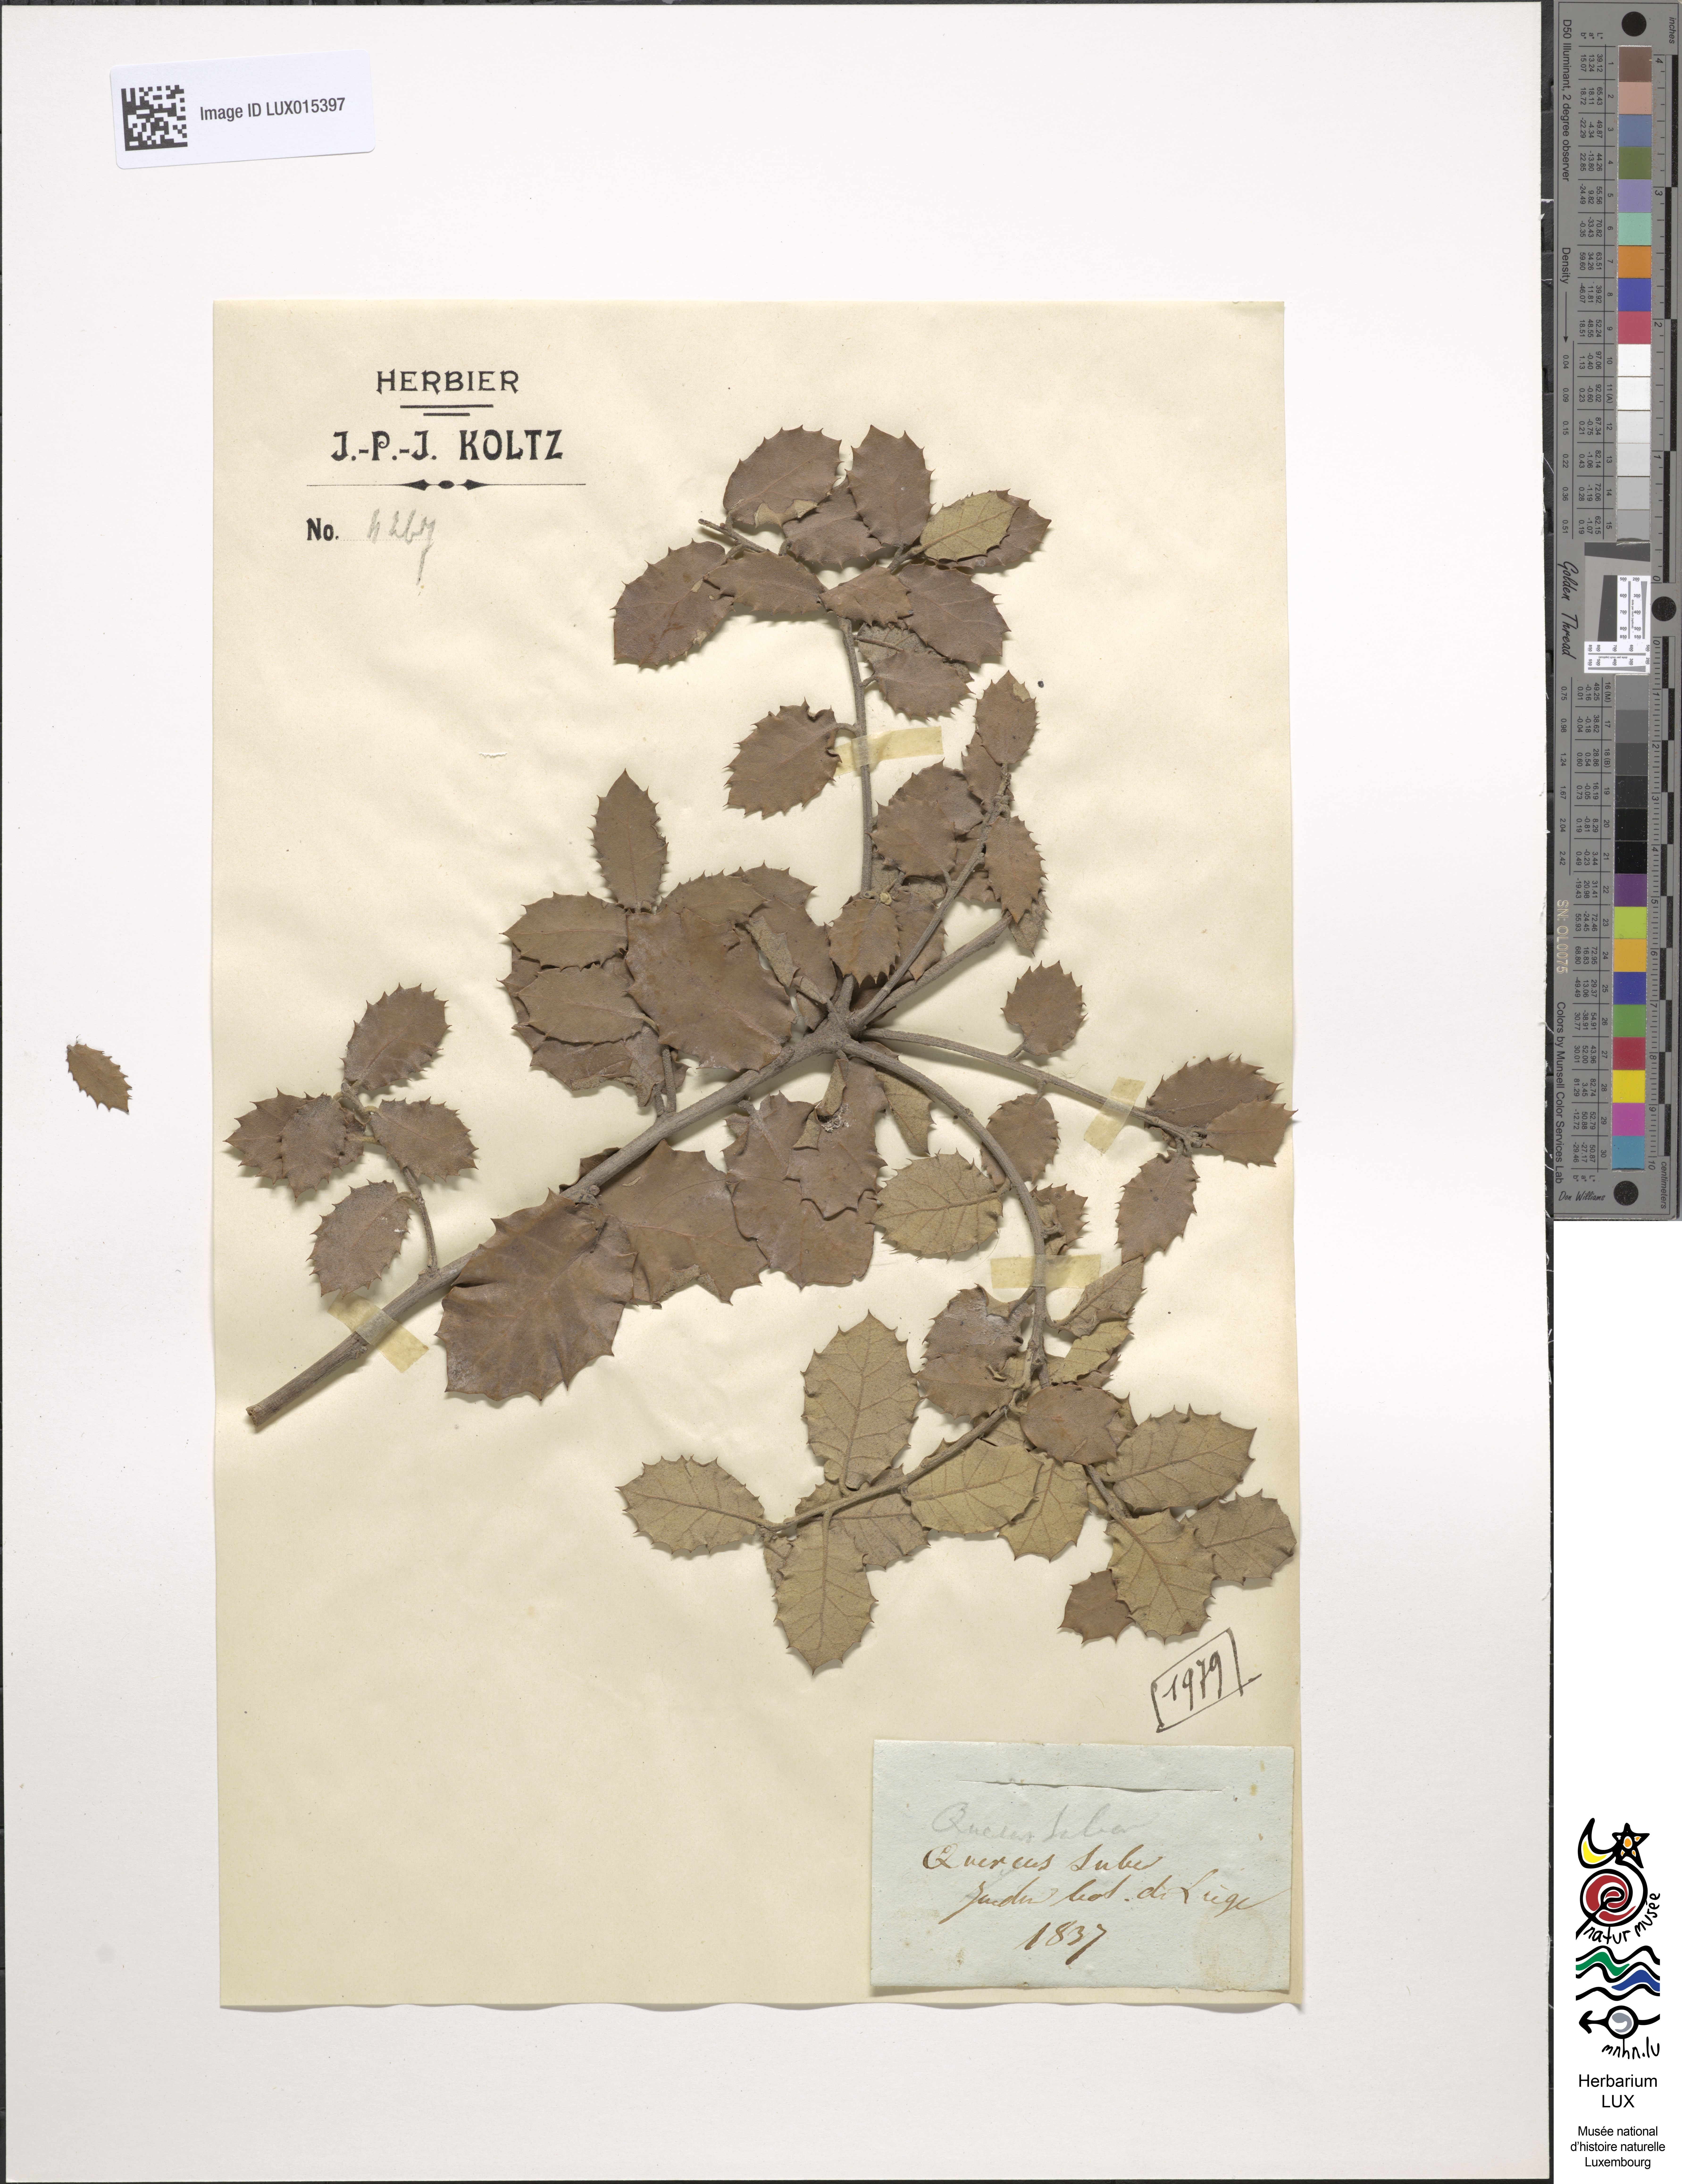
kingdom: Plantae
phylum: Tracheophyta
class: Magnoliopsida
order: Fagales
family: Fagaceae
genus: Quercus
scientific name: Quercus suber
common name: Cork oak
